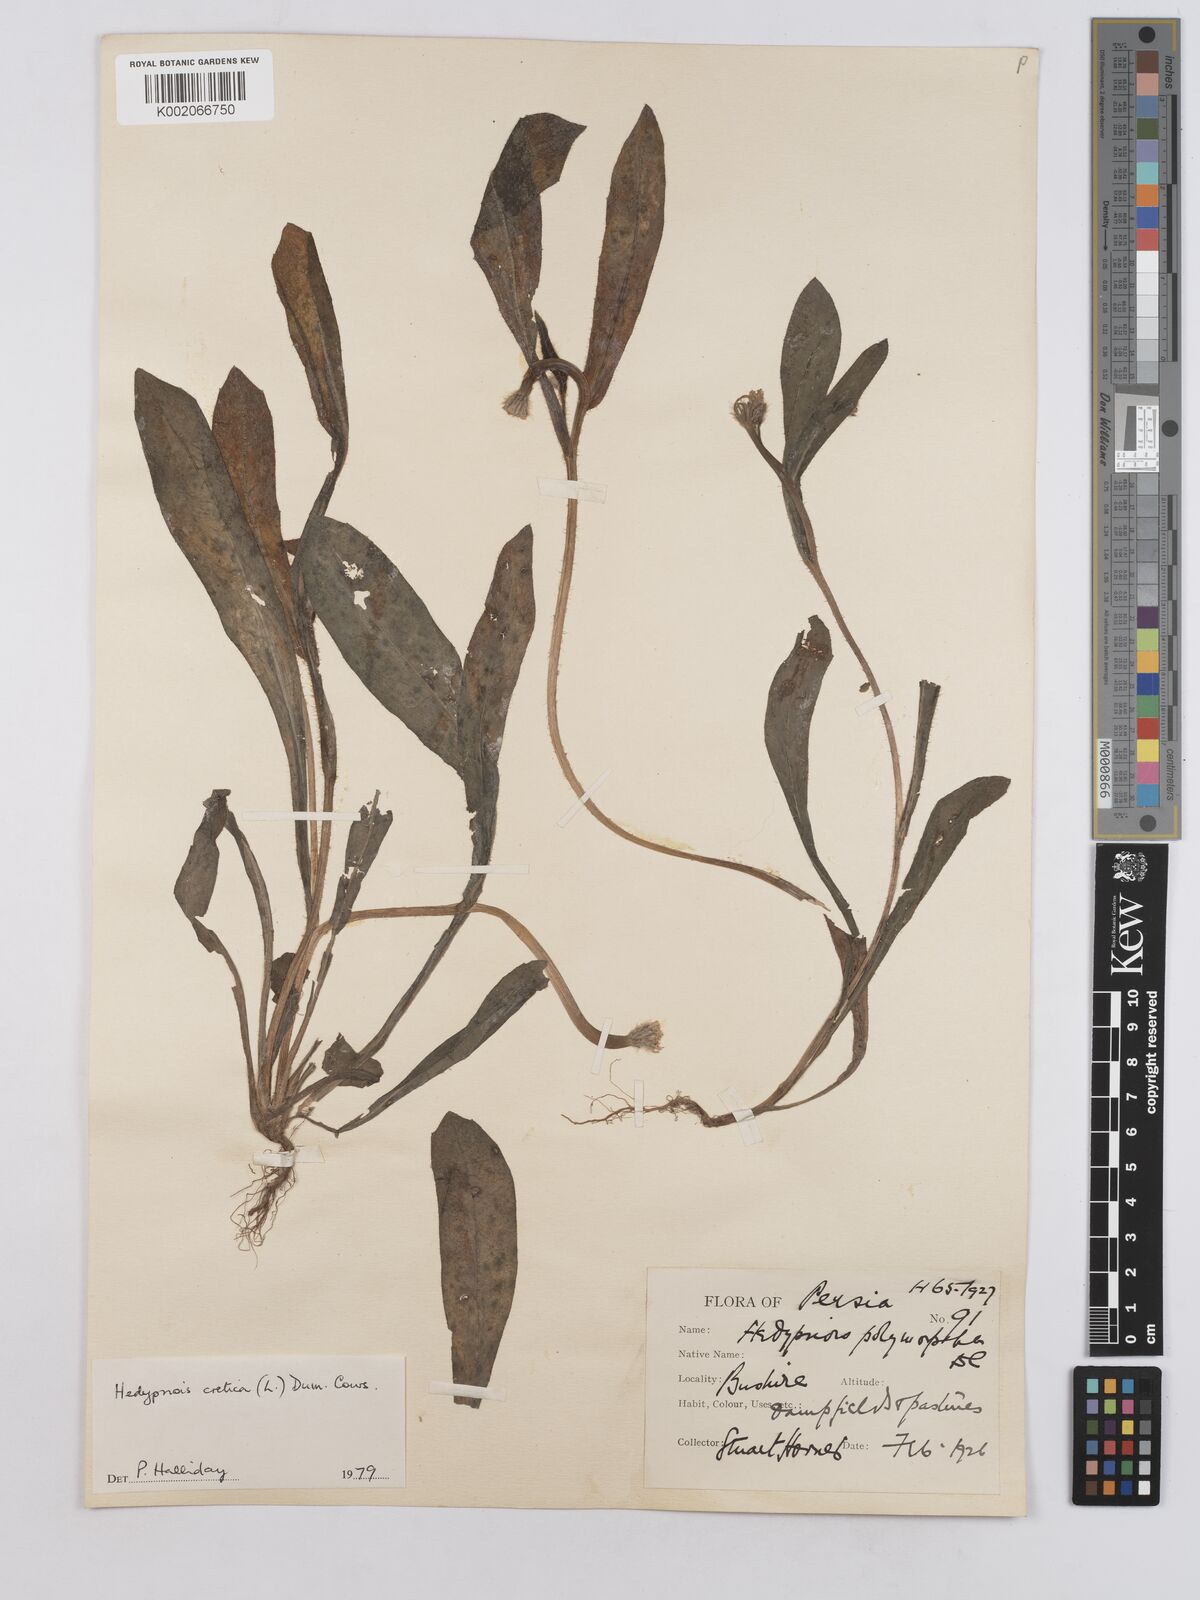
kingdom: Plantae
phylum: Tracheophyta
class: Magnoliopsida
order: Asterales
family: Asteraceae
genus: Hedypnois
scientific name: Hedypnois cretica
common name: Scaly hawkbit
